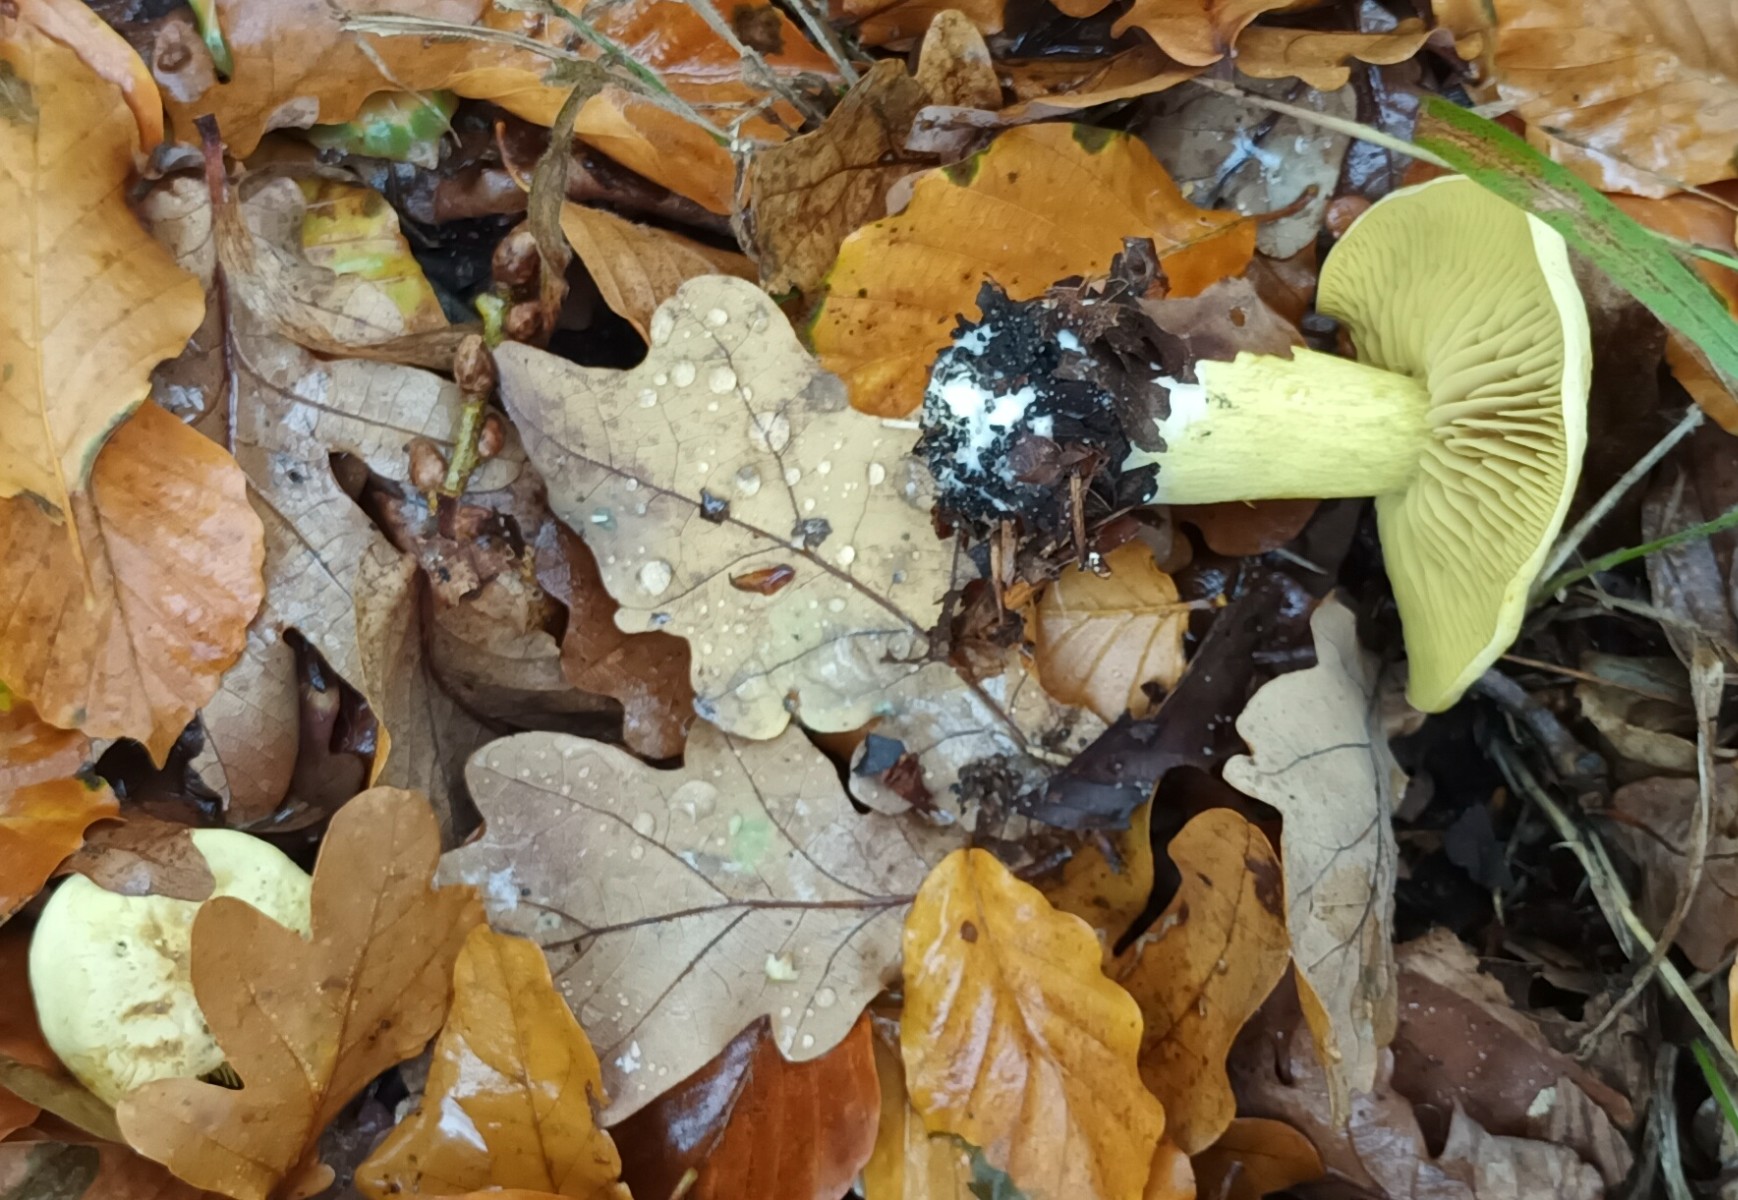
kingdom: Fungi
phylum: Basidiomycota
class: Agaricomycetes
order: Agaricales
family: Tricholomataceae
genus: Tricholoma
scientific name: Tricholoma sulphureum
